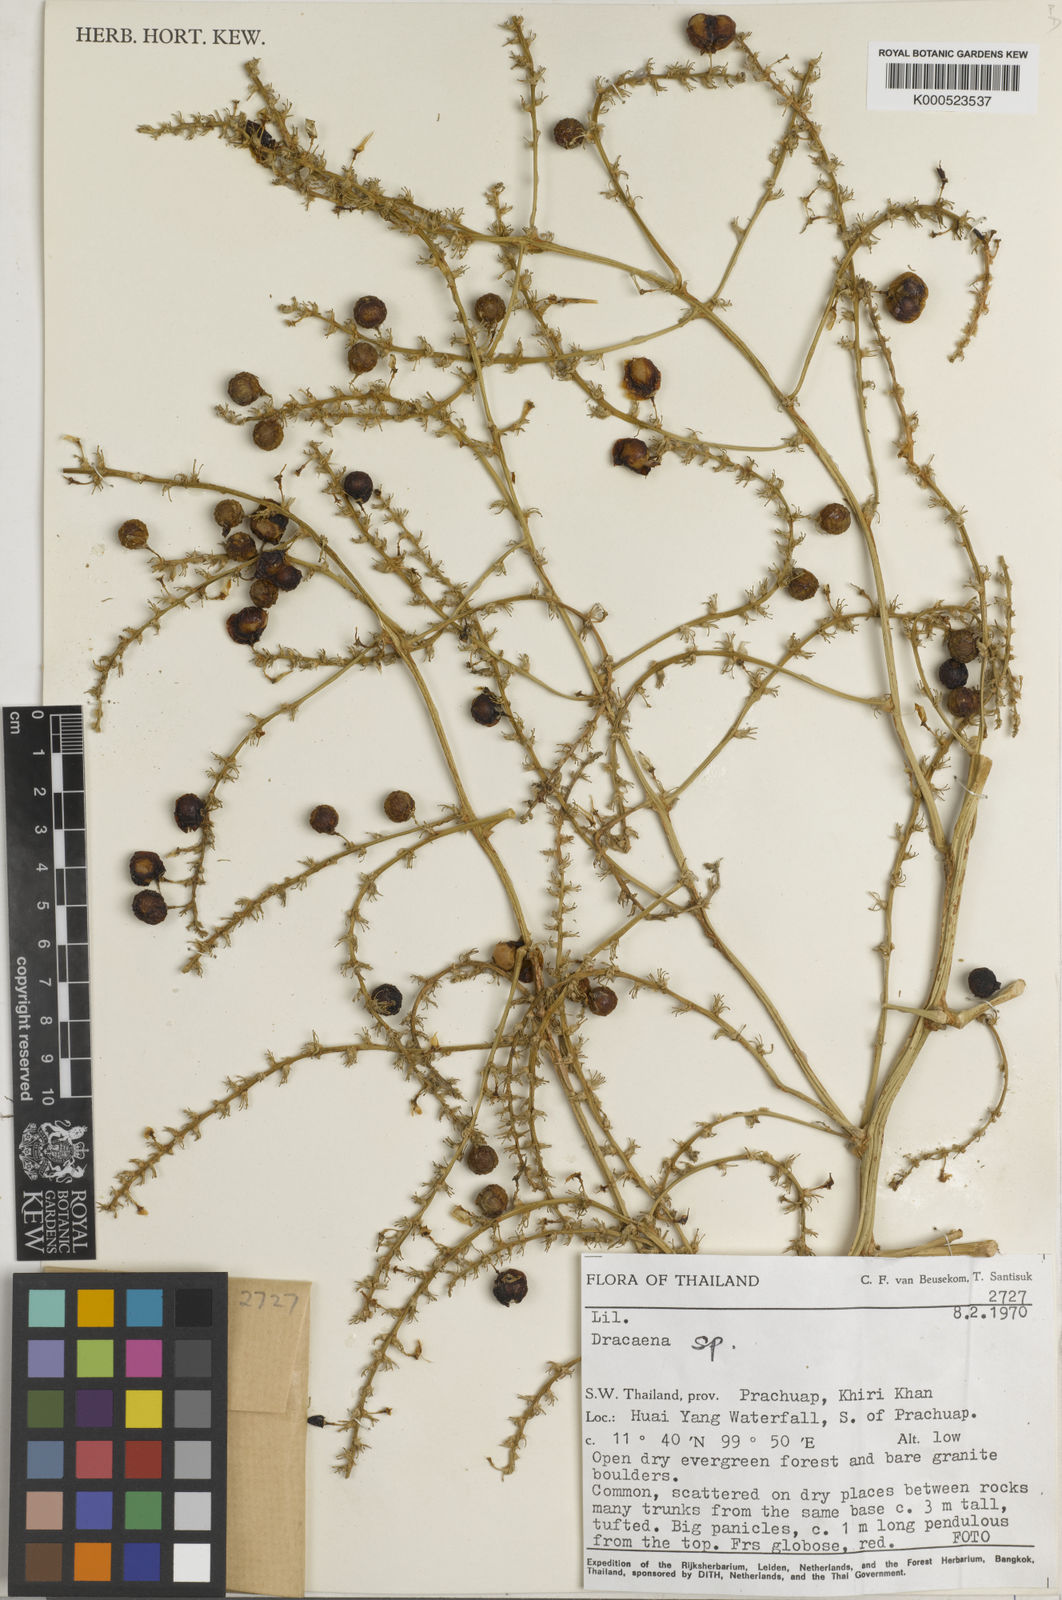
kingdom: Plantae
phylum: Tracheophyta
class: Liliopsida
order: Asparagales
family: Asparagaceae
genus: Dracaena
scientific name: Dracaena
